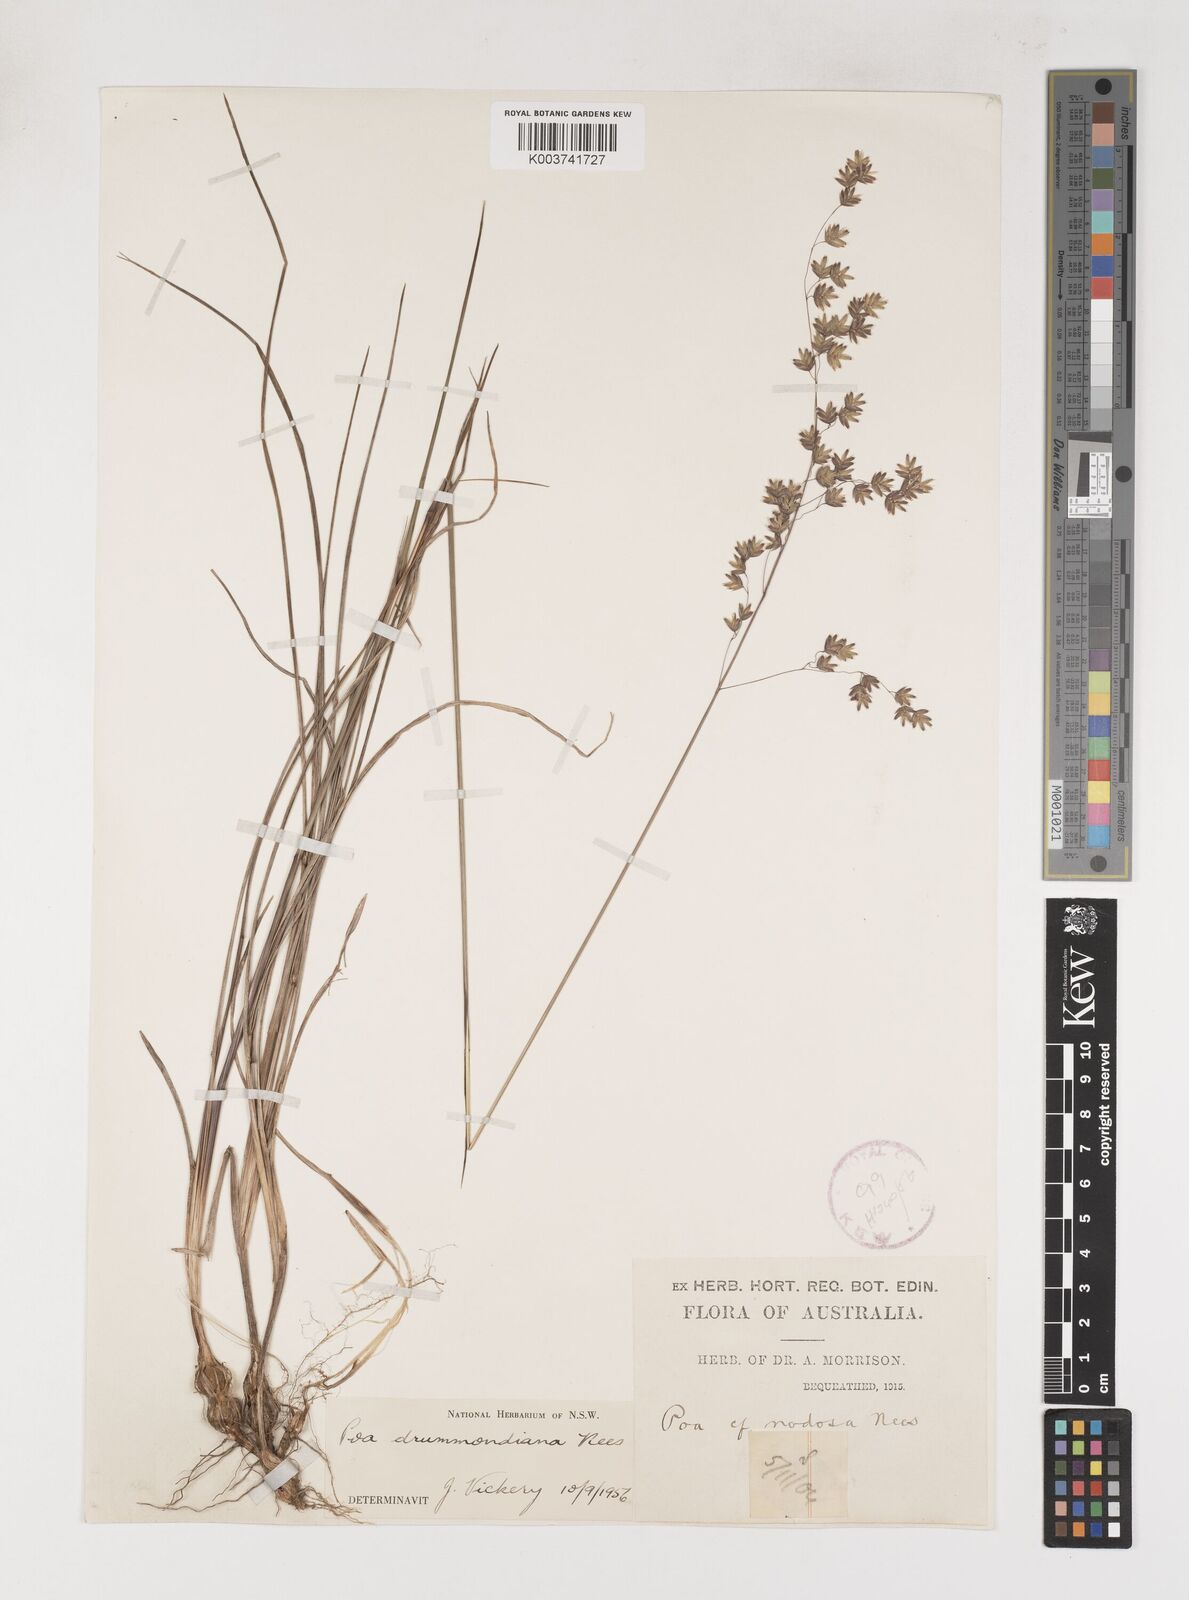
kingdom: Plantae
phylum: Tracheophyta
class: Liliopsida
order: Poales
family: Poaceae
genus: Poa
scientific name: Poa drummondiana
